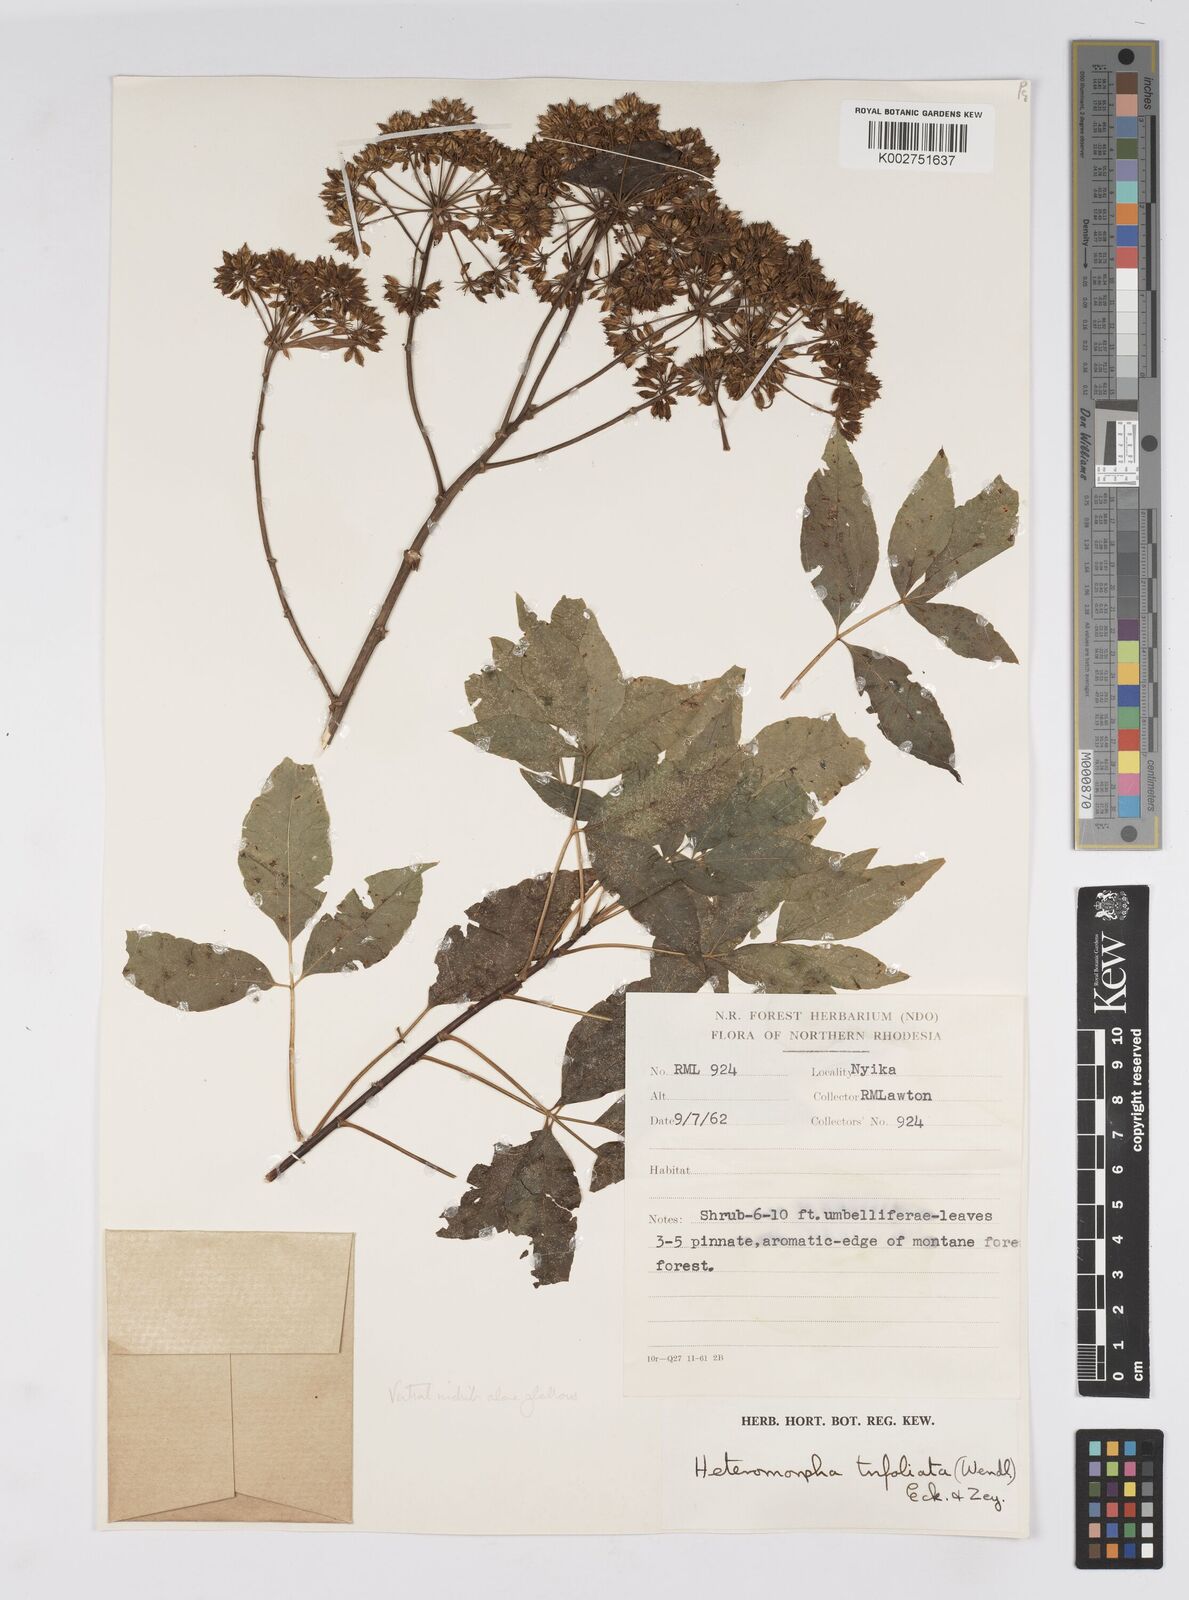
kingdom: Plantae
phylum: Tracheophyta
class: Magnoliopsida
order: Apiales
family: Apiaceae
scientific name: Apiaceae
